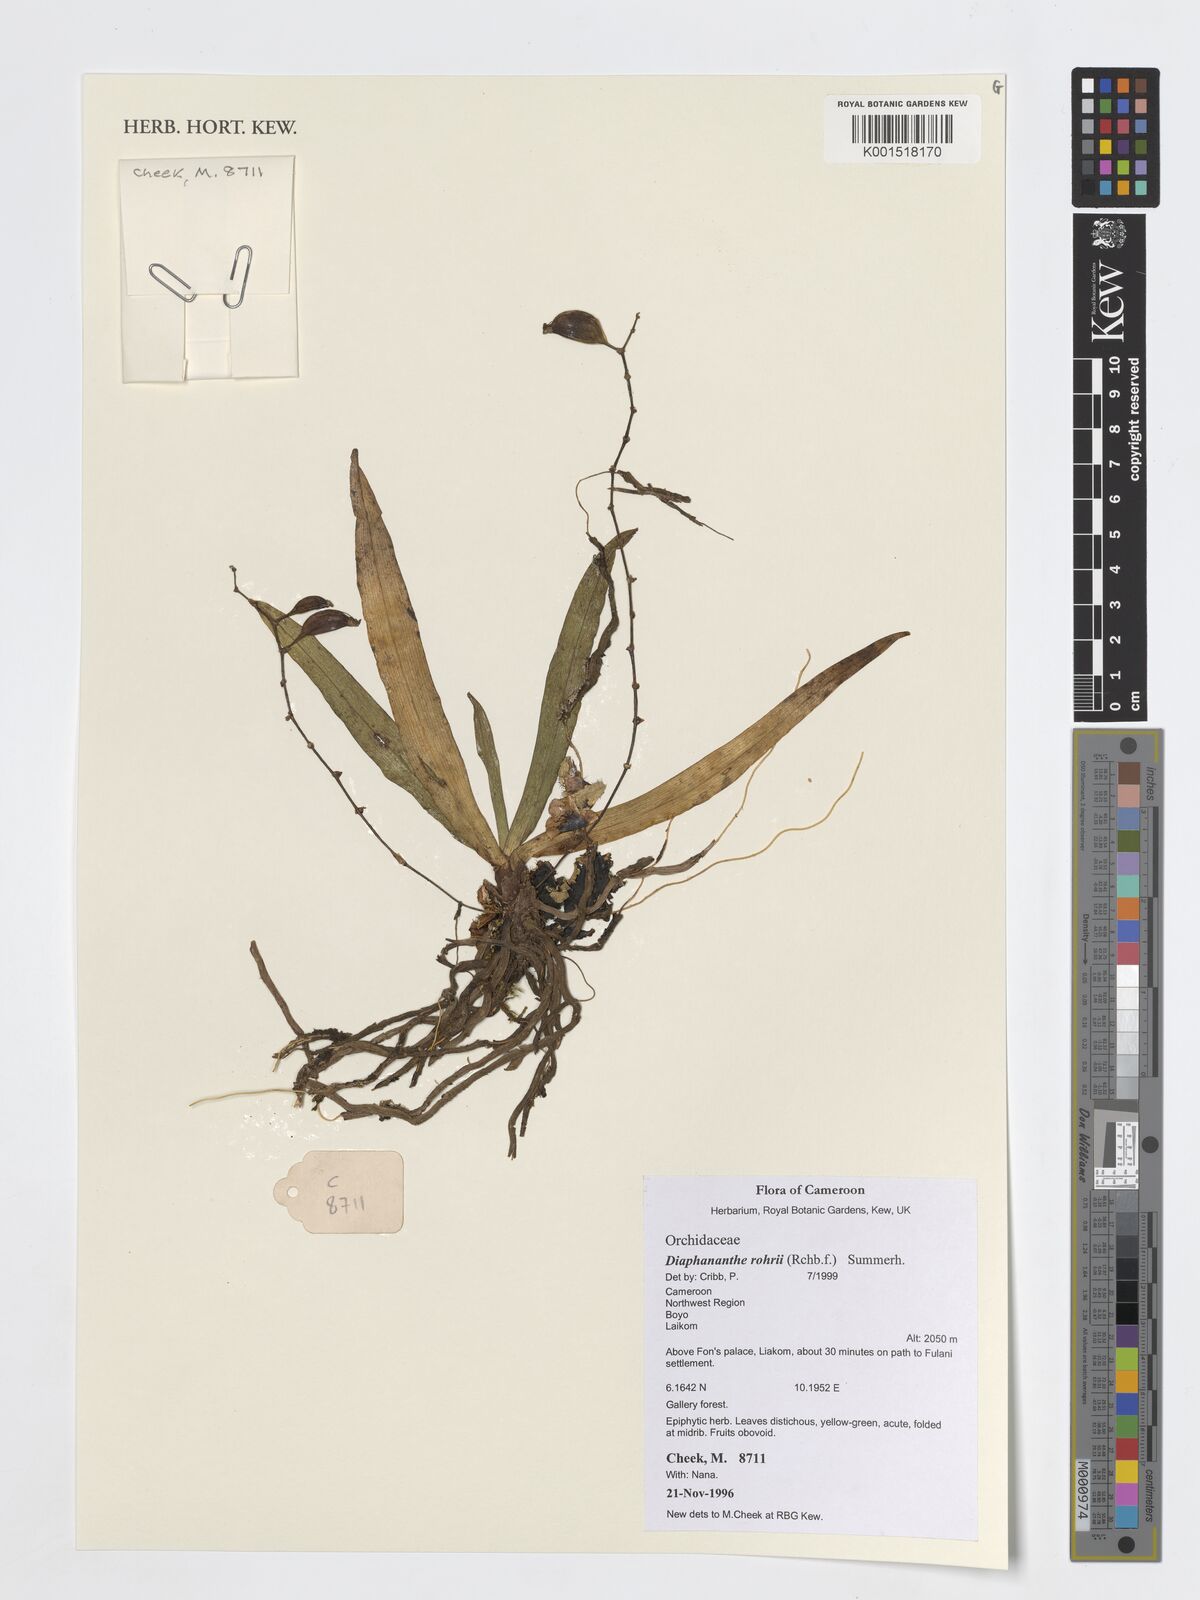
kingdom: Plantae
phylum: Tracheophyta
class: Liliopsida
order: Asparagales
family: Orchidaceae
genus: Kylicanthe
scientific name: Kylicanthe rohrii
